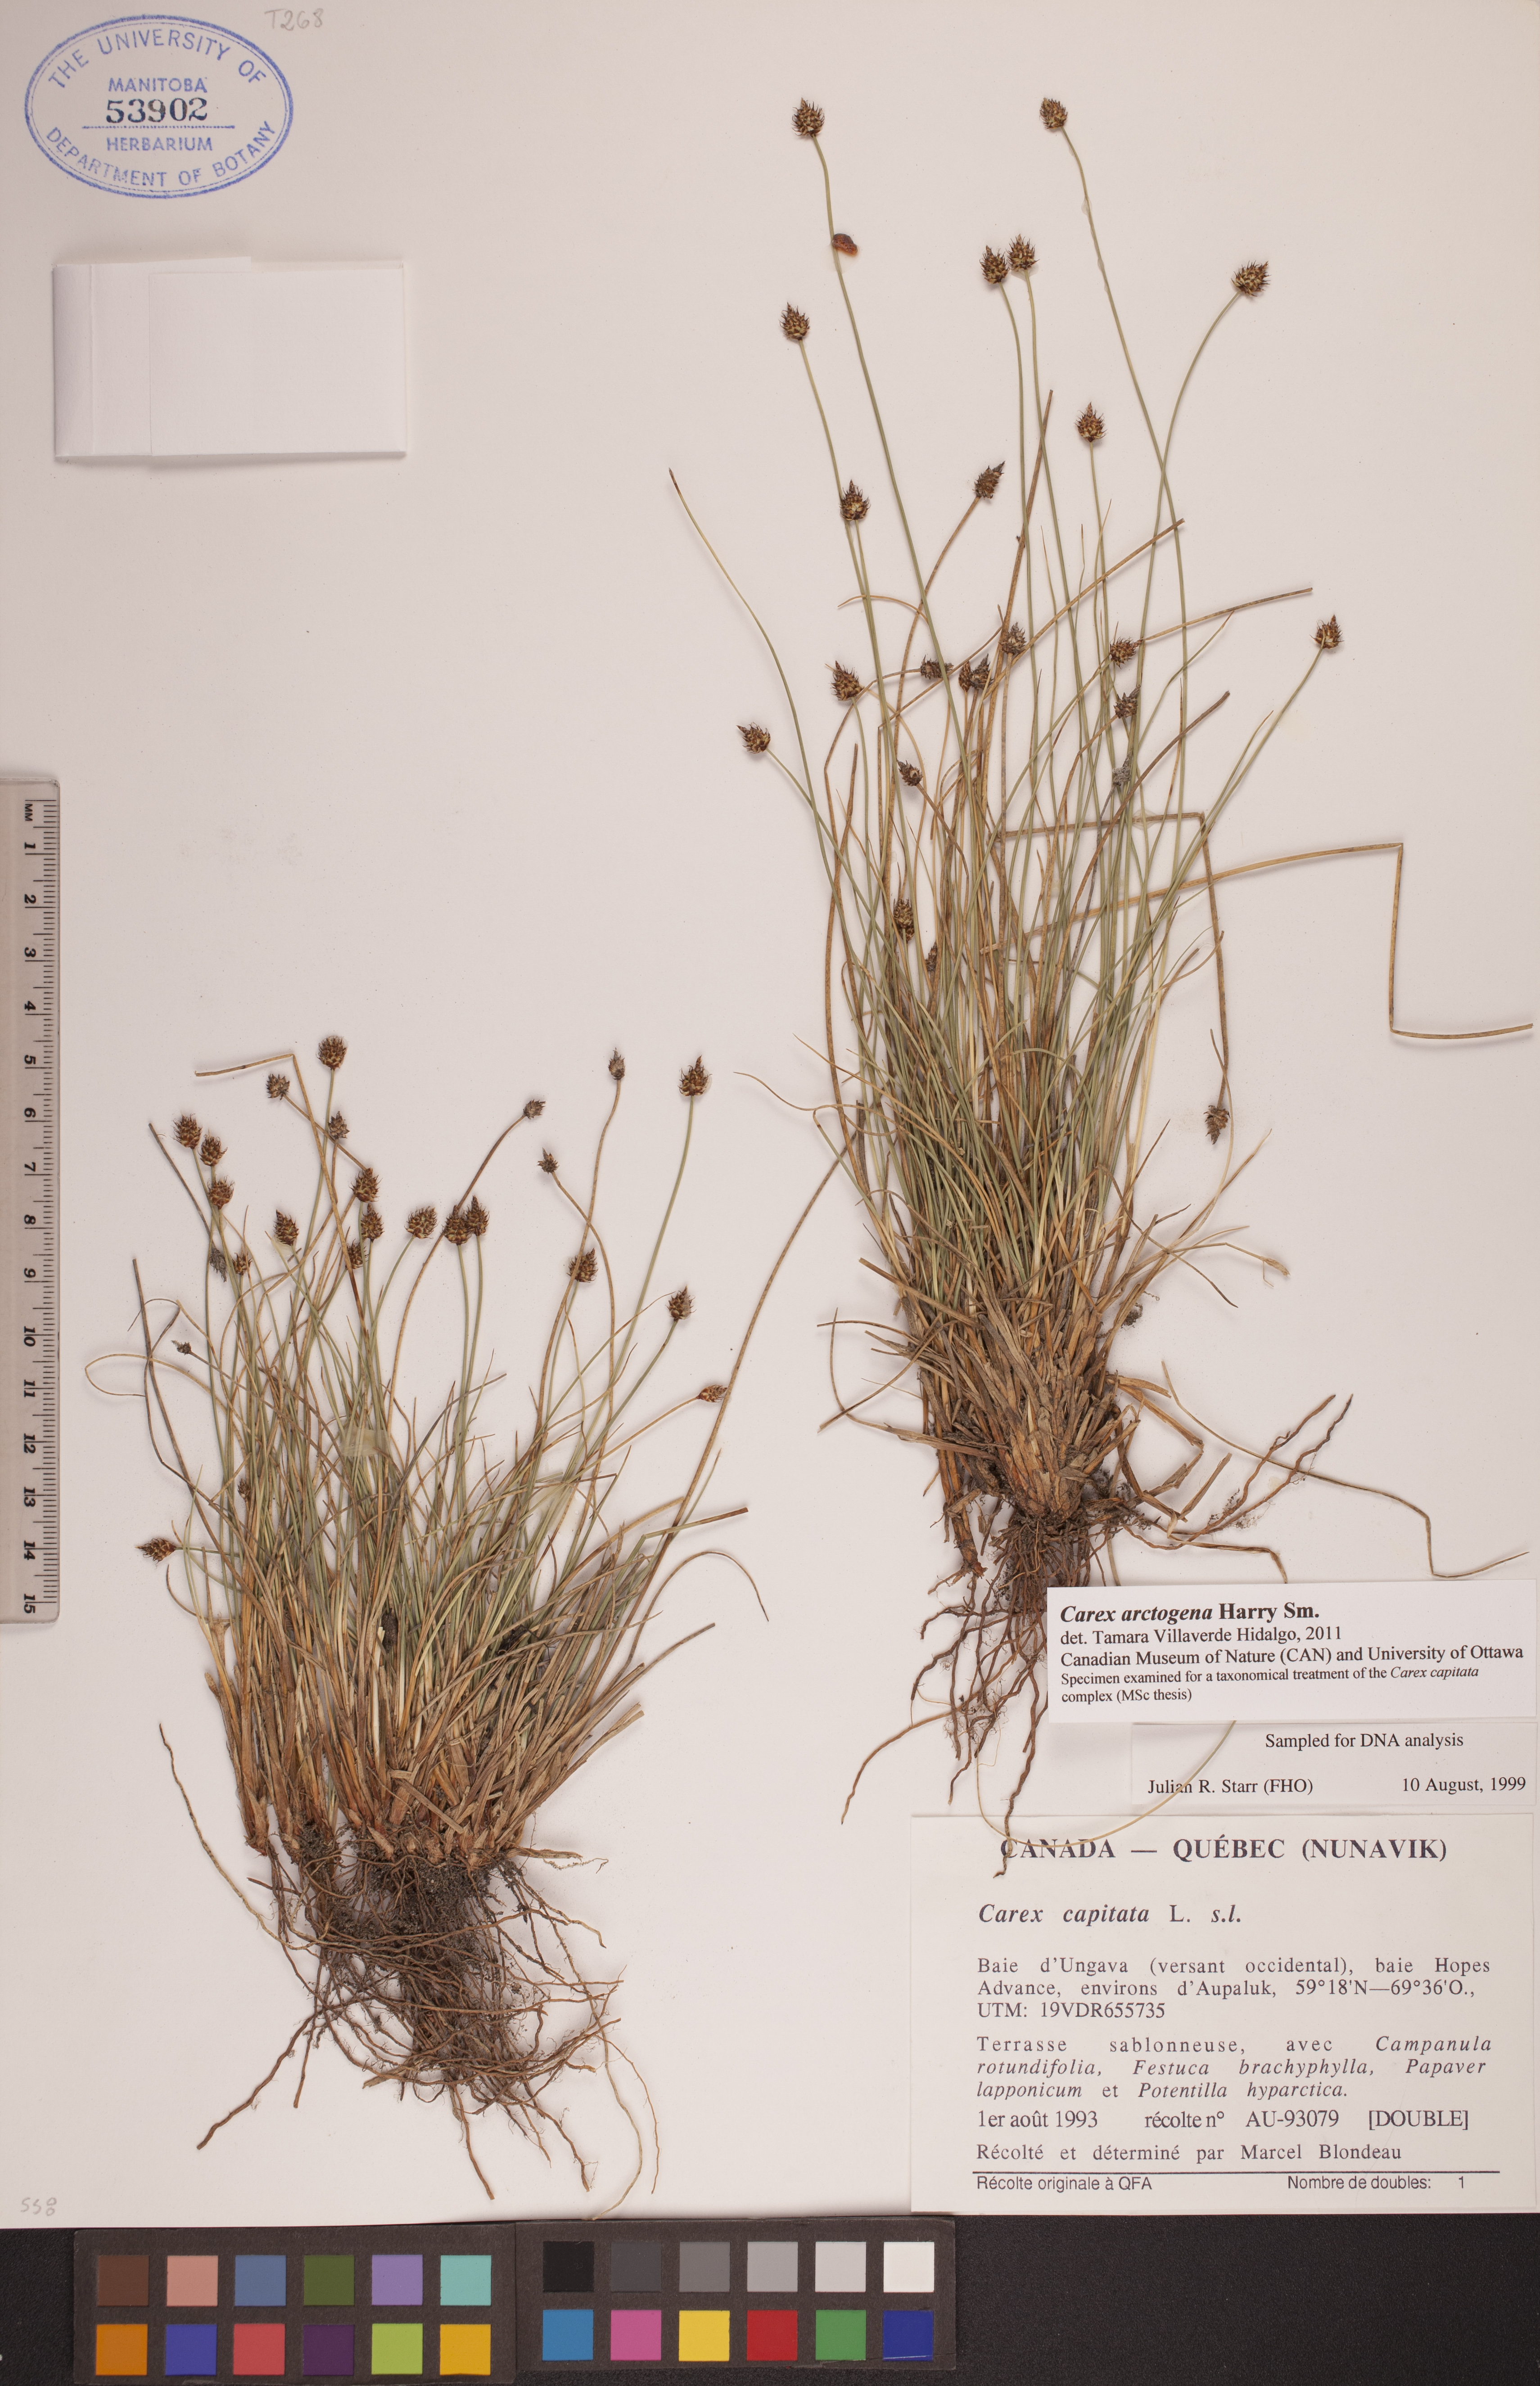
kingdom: Plantae
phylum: Tracheophyta
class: Liliopsida
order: Poales
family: Cyperaceae
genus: Carex
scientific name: Carex arctogena
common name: Black sedge
